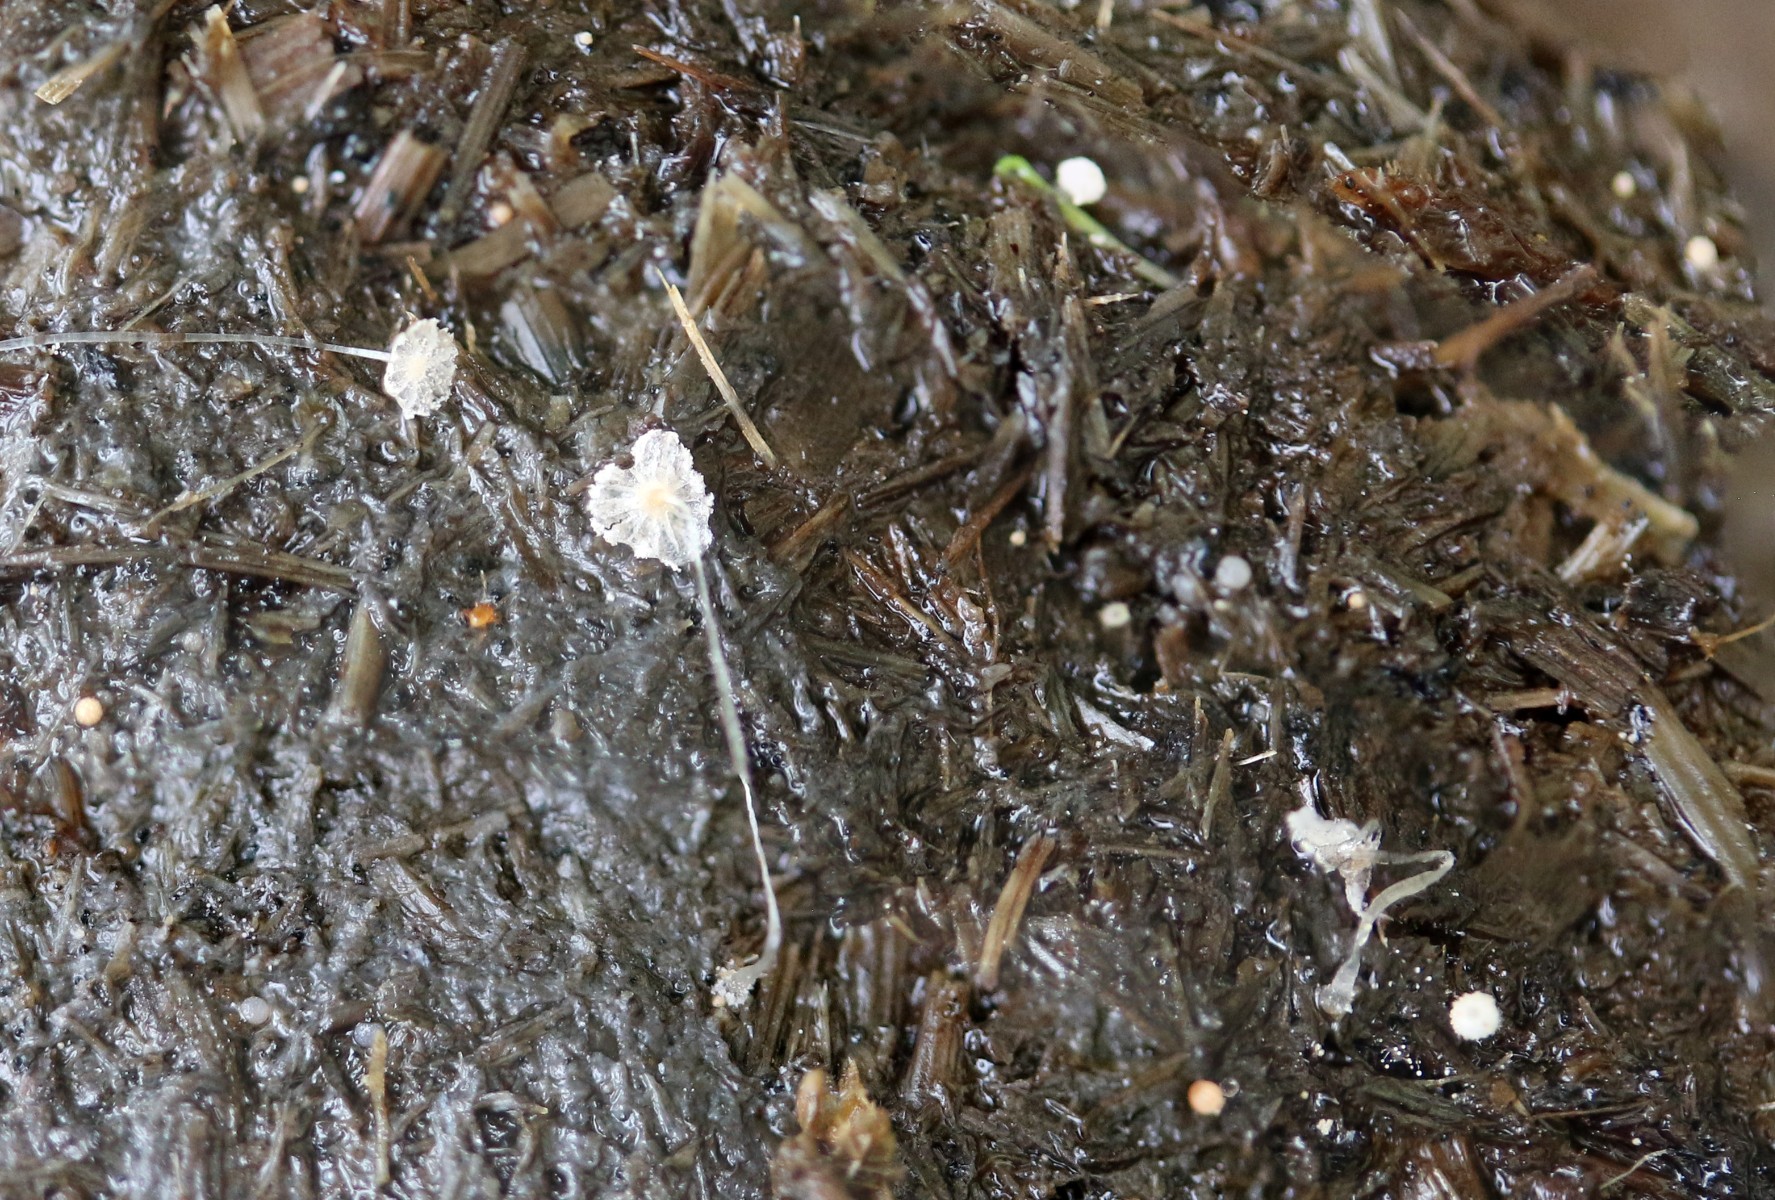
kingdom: Fungi
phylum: Basidiomycota
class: Agaricomycetes
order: Agaricales
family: Psathyrellaceae
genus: Parasola
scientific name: Parasola misera
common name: lillebitte hjulhat
